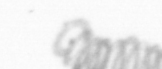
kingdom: Chromista
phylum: Ochrophyta
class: Bacillariophyceae
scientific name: Bacillariophyceae
